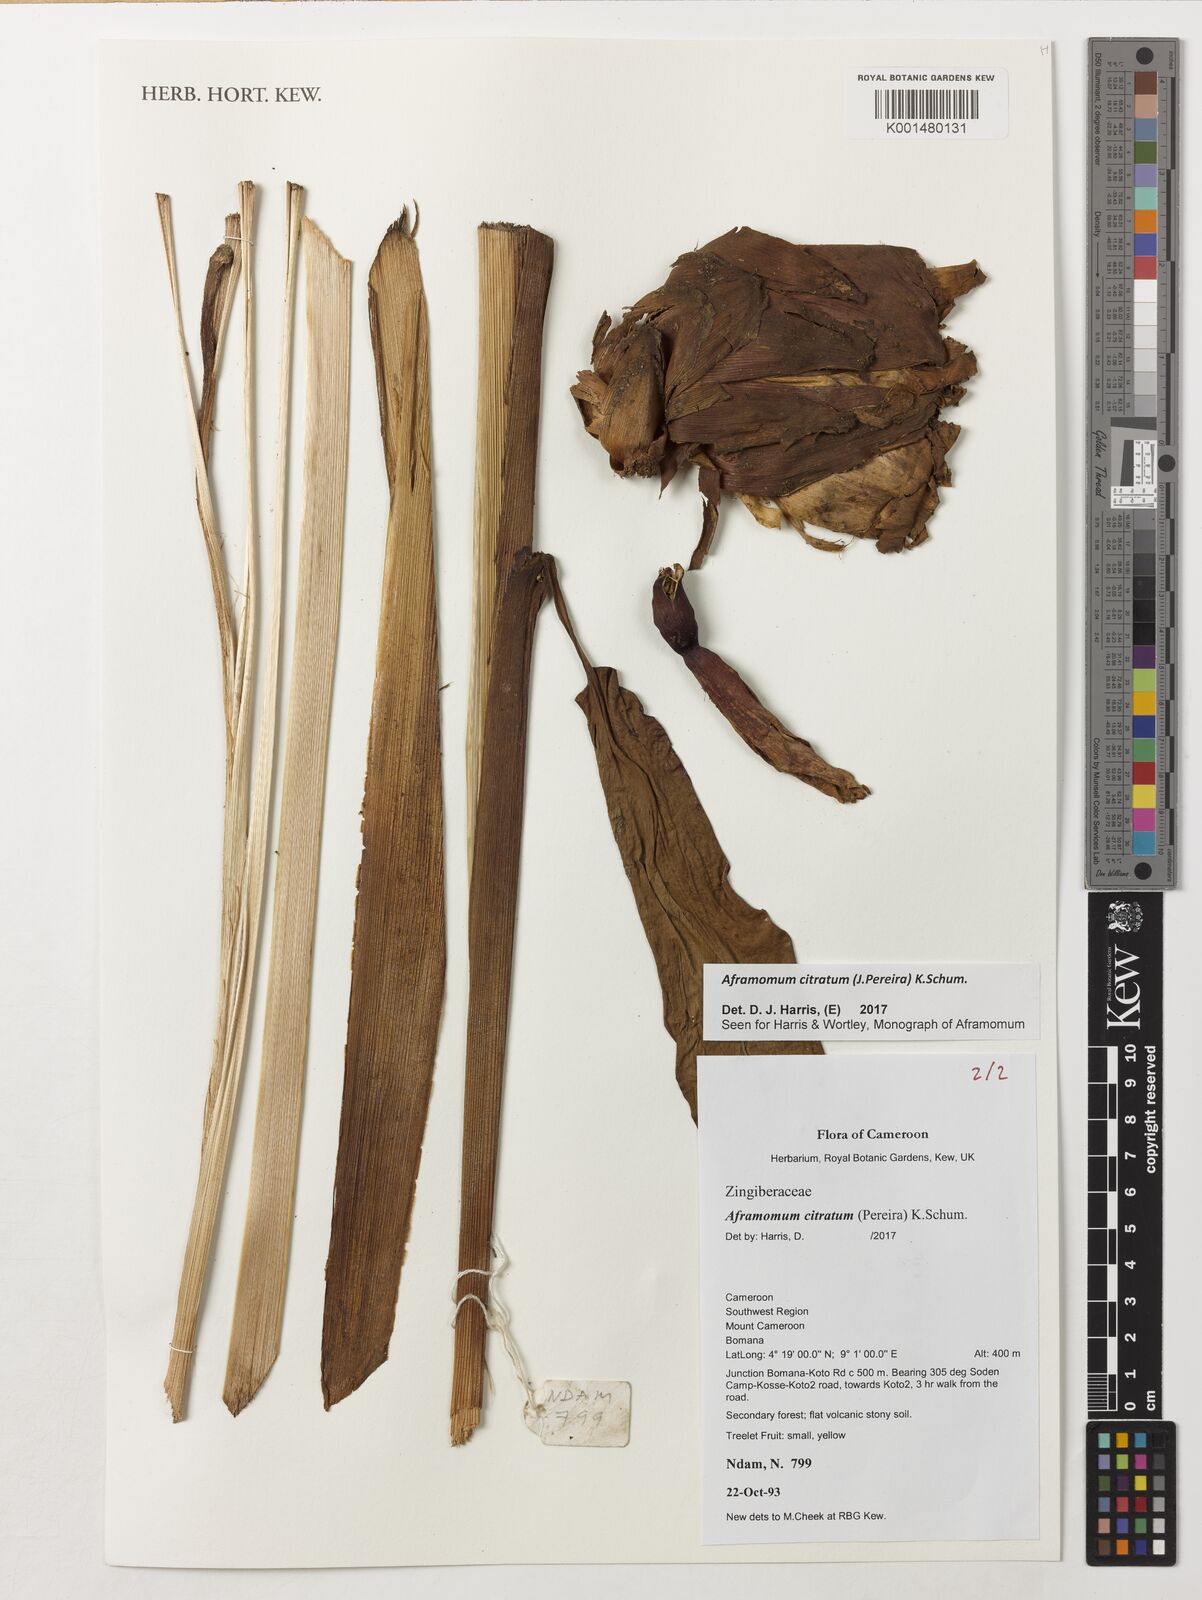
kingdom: Plantae
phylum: Tracheophyta
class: Liliopsida
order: Zingiberales
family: Zingiberaceae
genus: Aframomum
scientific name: Aframomum citratum
